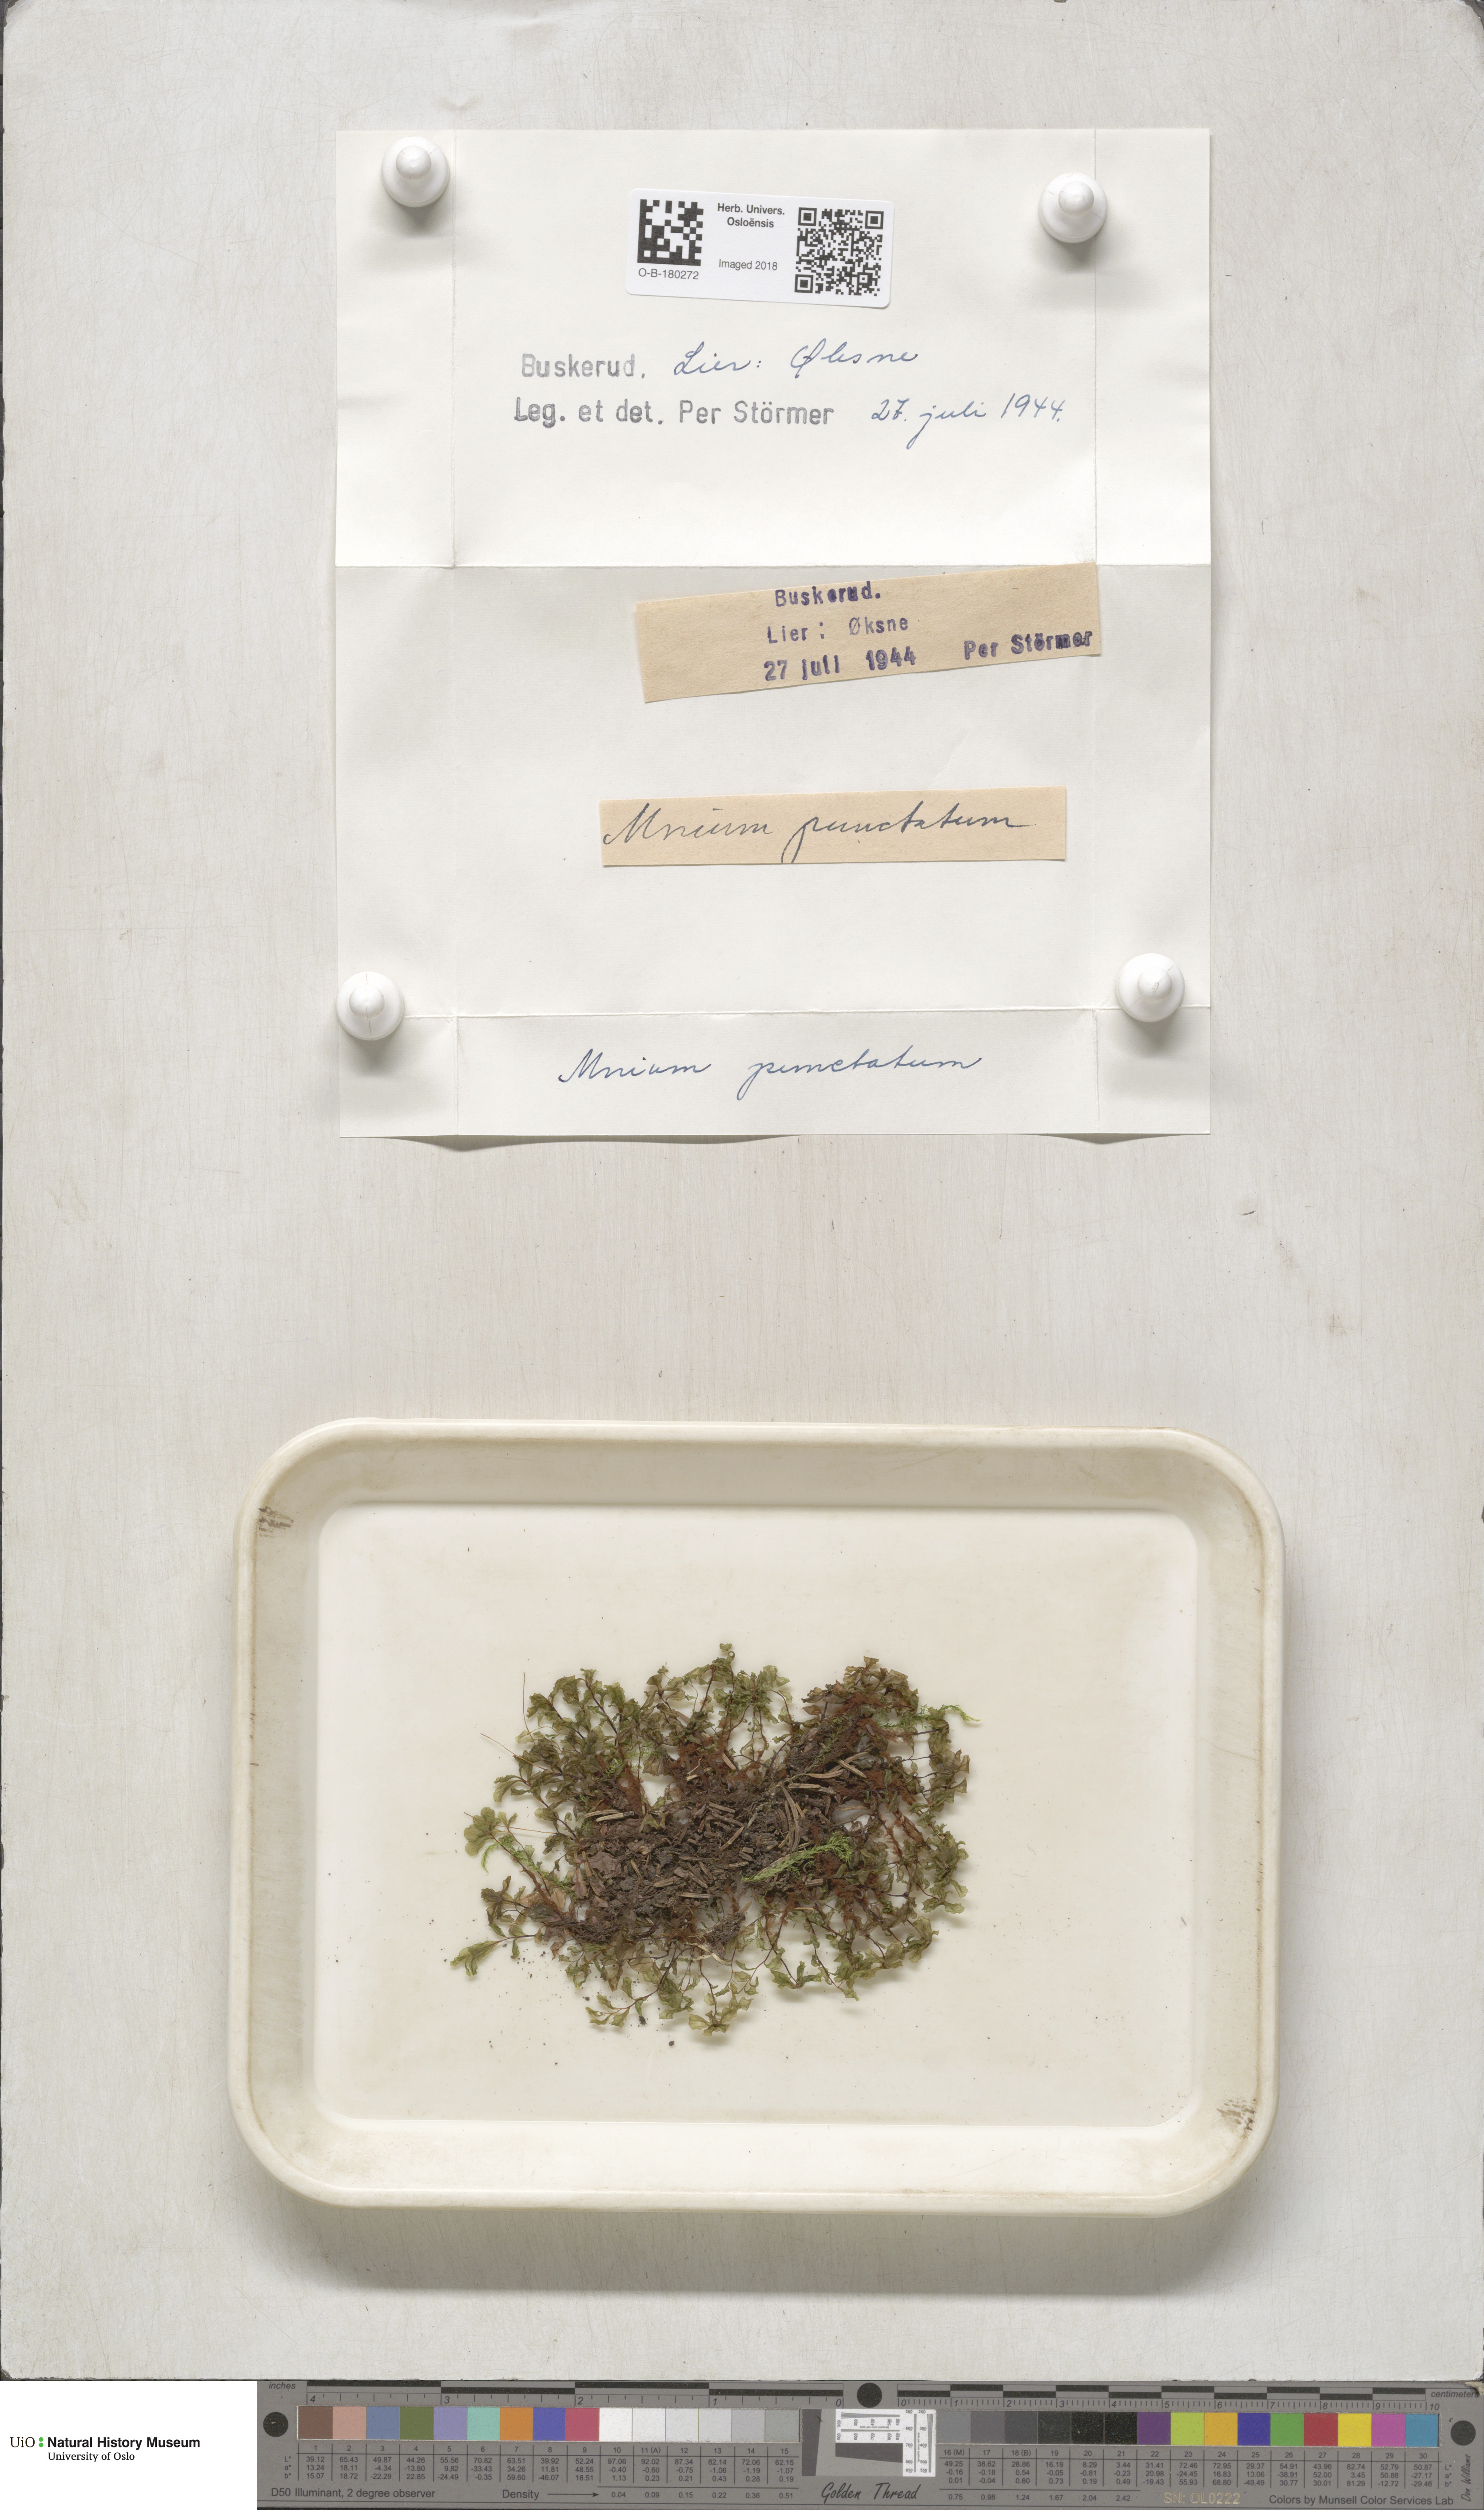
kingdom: Plantae
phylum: Bryophyta
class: Bryopsida
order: Bryales
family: Mniaceae
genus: Rhizomnium
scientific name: Rhizomnium punctatum
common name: Dotted leafy moss
